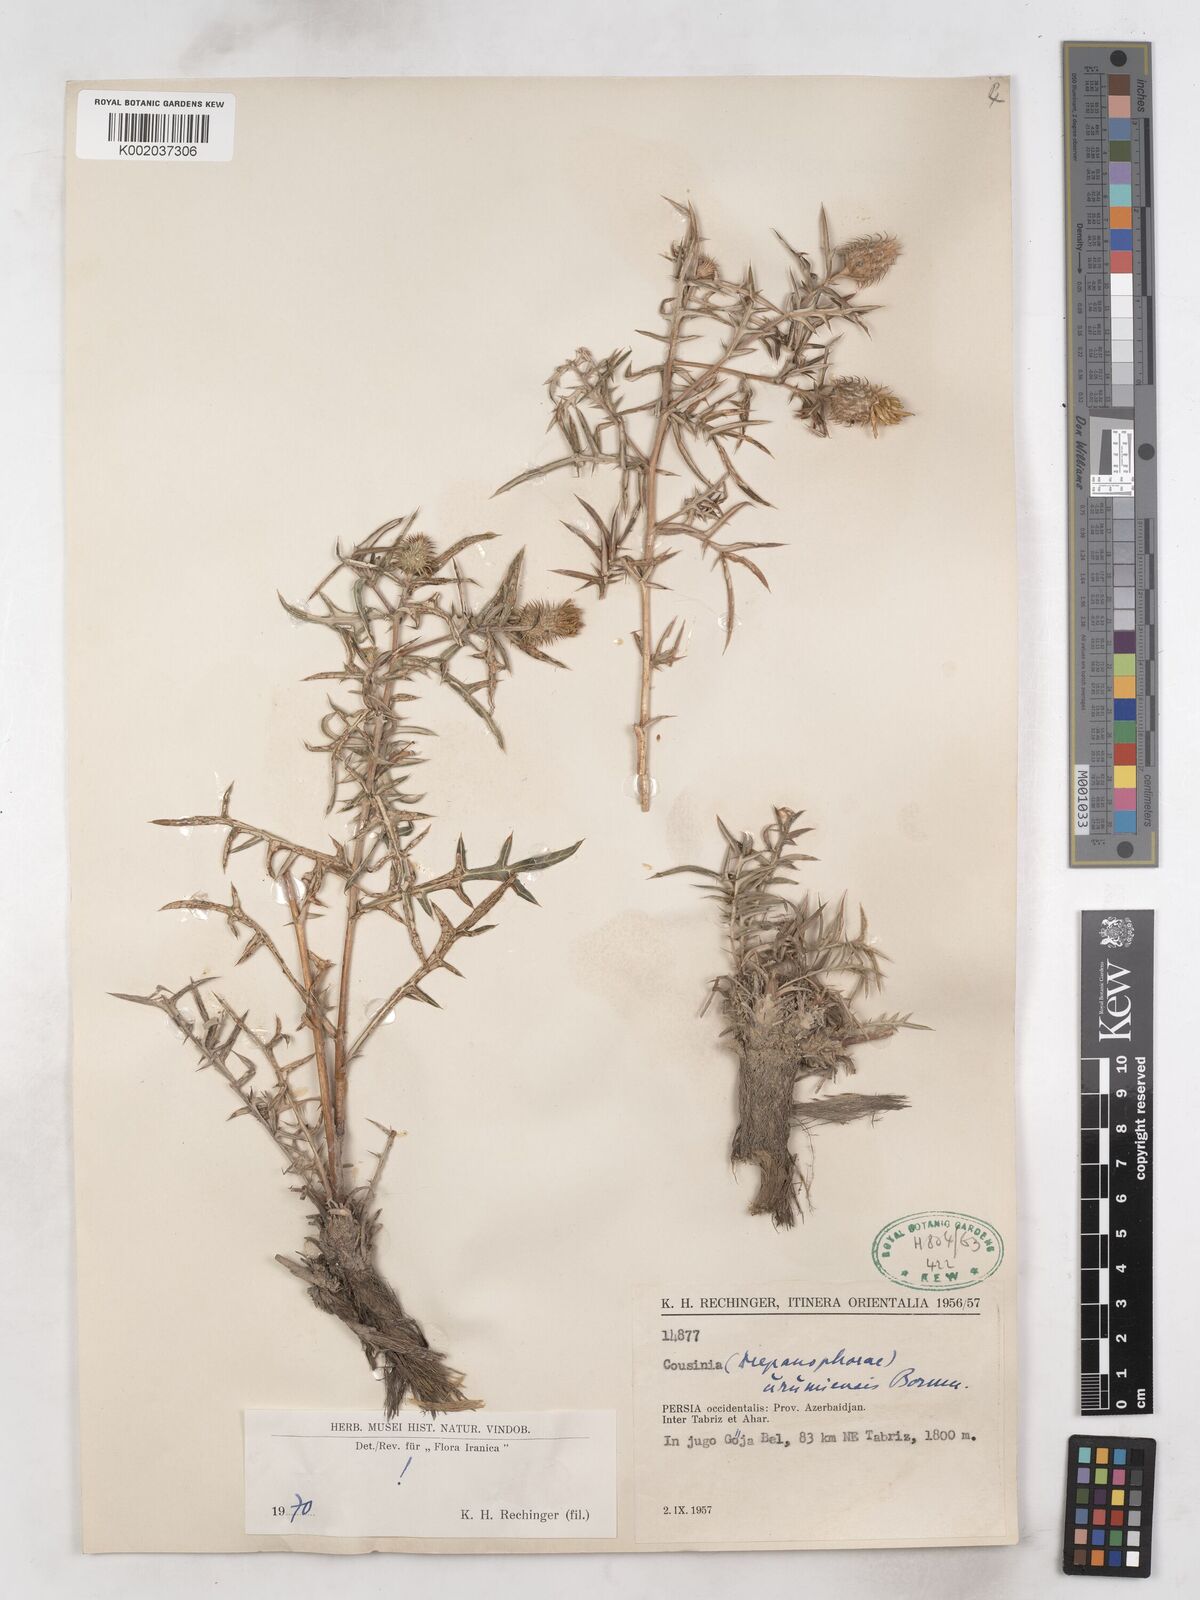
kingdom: Plantae
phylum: Tracheophyta
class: Magnoliopsida
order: Asterales
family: Asteraceae
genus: Cousinia
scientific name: Cousinia tenuifolia
